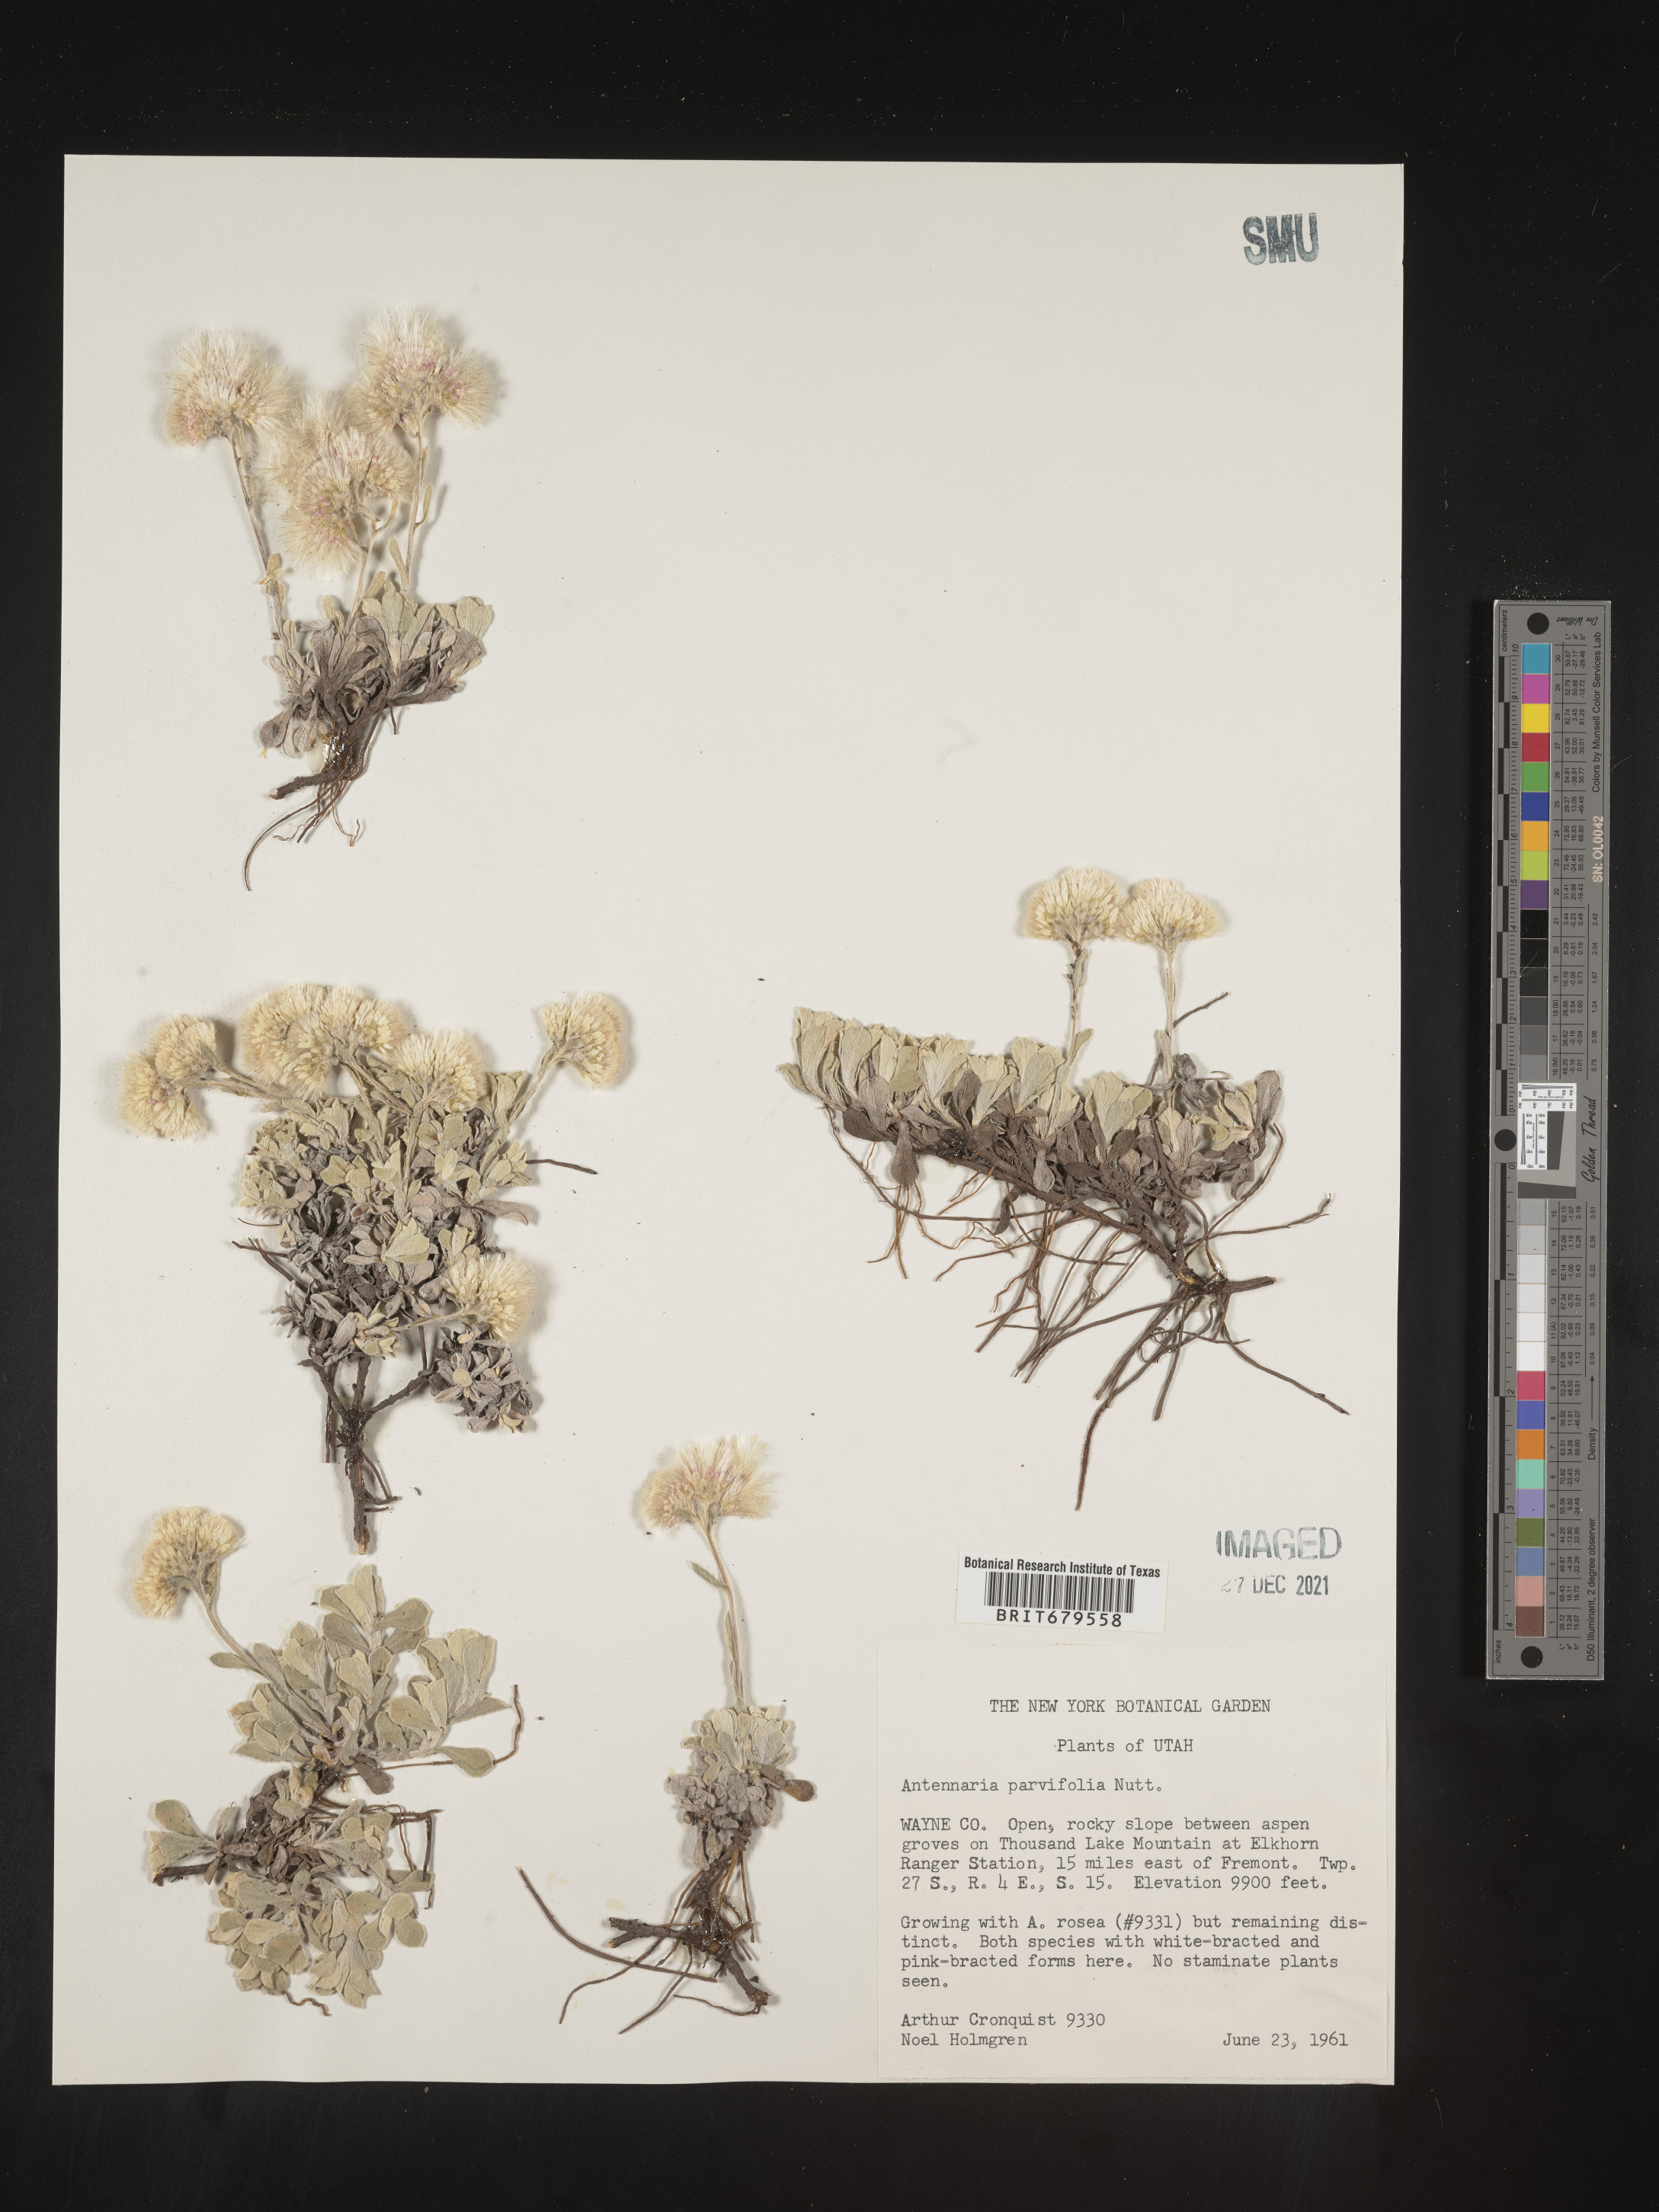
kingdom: Plantae
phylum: Tracheophyta
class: Magnoliopsida
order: Asterales
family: Asteraceae
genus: Antennaria
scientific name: Antennaria parvifolia
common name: Nuttall's pussytoes
